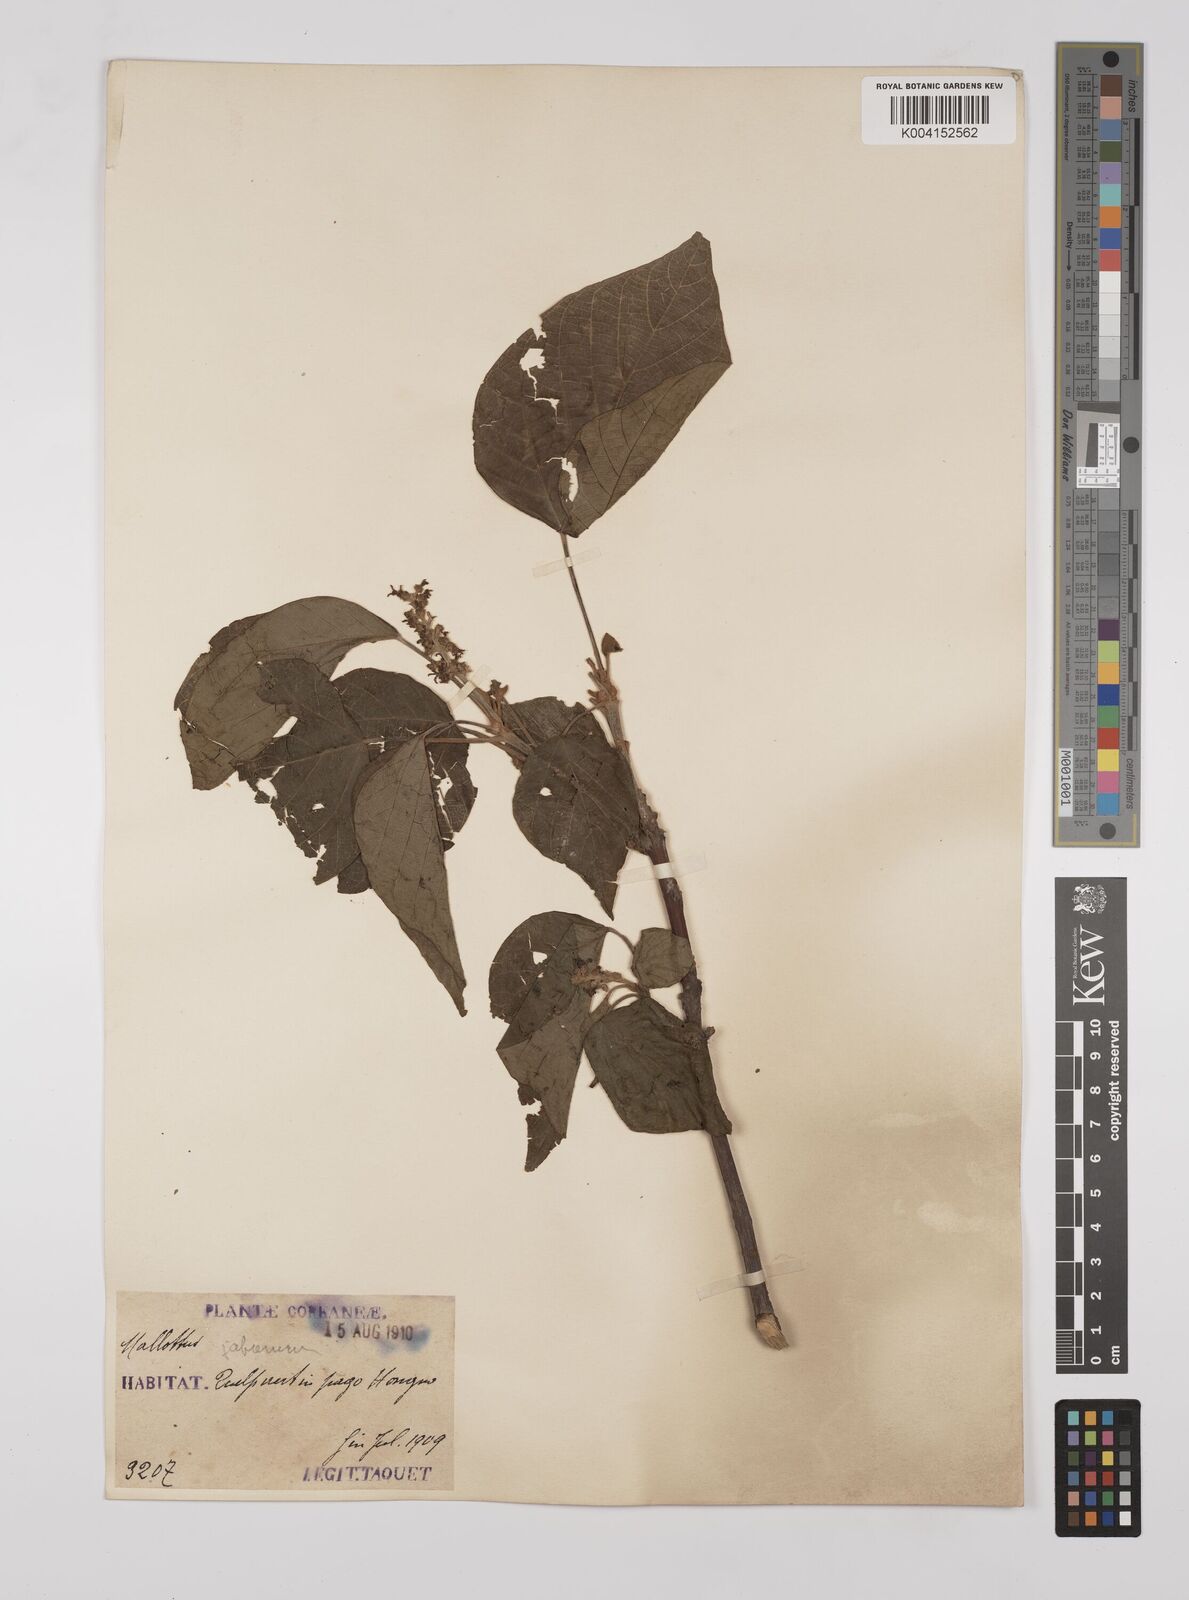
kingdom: Plantae
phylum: Tracheophyta
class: Magnoliopsida
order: Malpighiales
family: Euphorbiaceae
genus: Mallotus
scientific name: Mallotus japonicus
